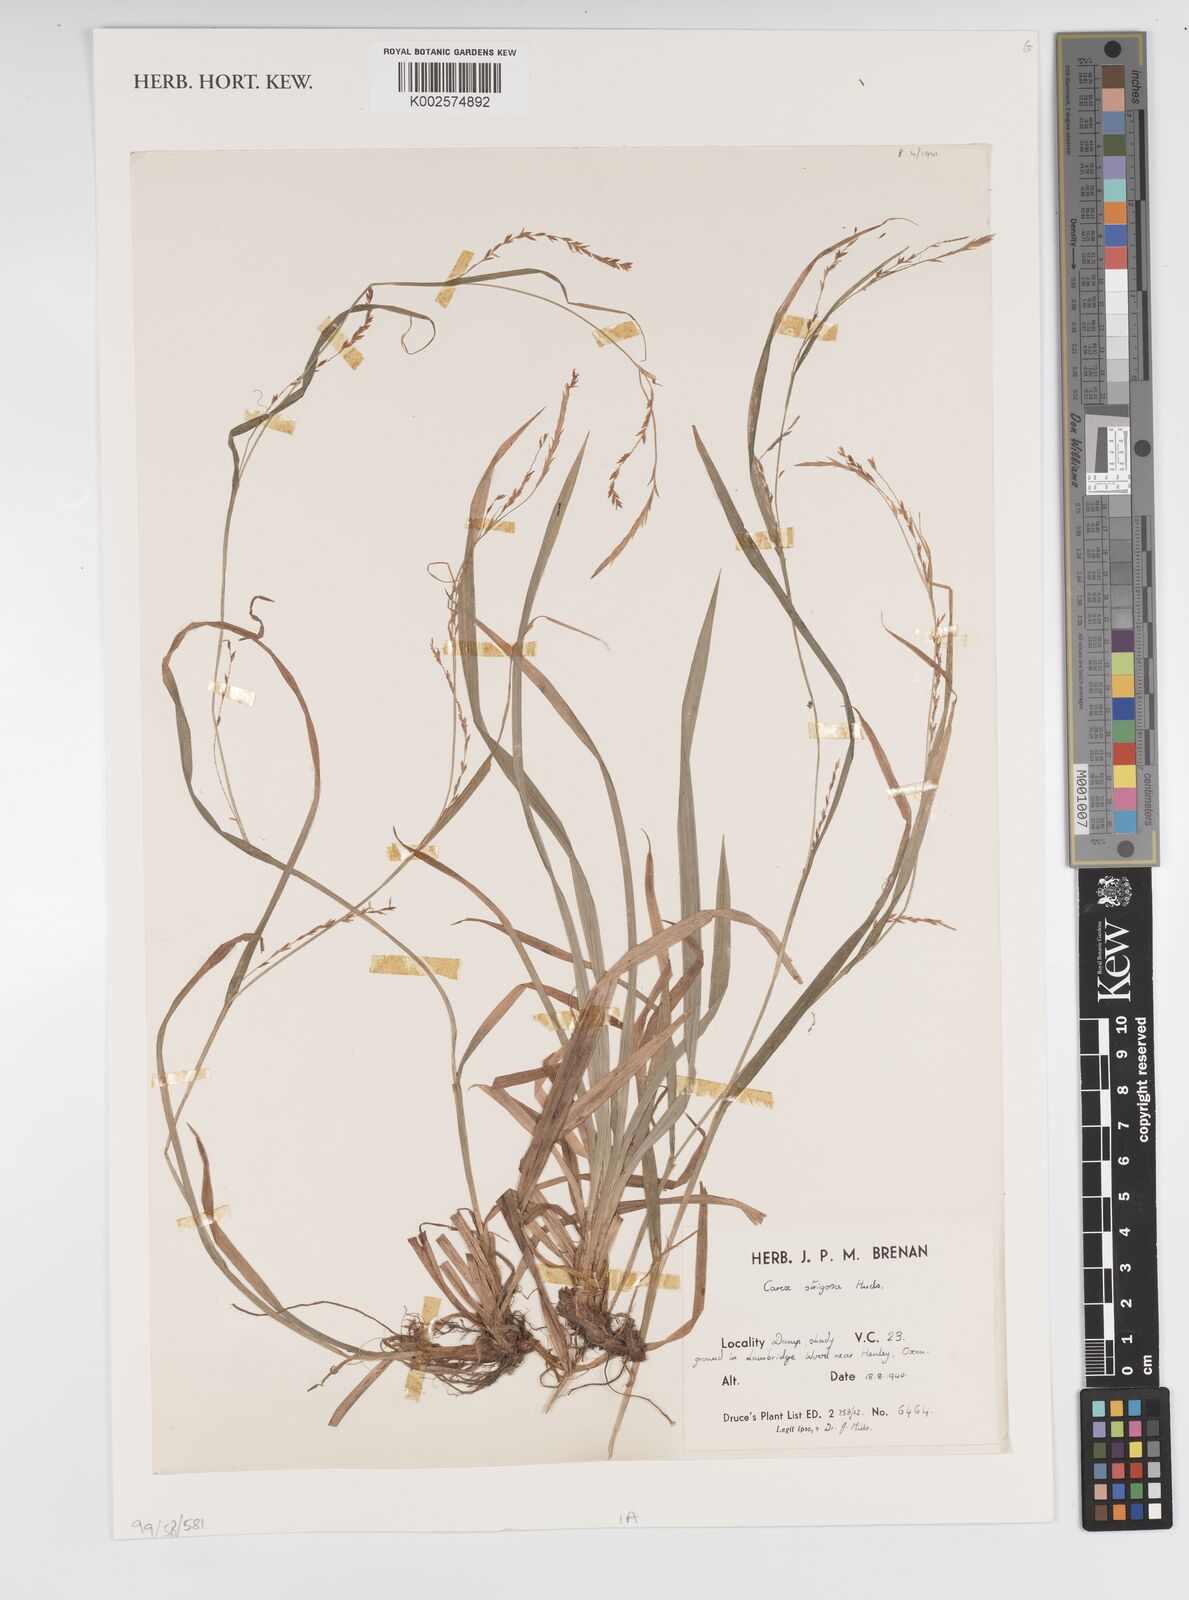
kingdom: Plantae
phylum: Tracheophyta
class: Liliopsida
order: Poales
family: Cyperaceae
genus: Carex
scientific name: Carex strigosa
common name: Thin-spiked wood-sedge
